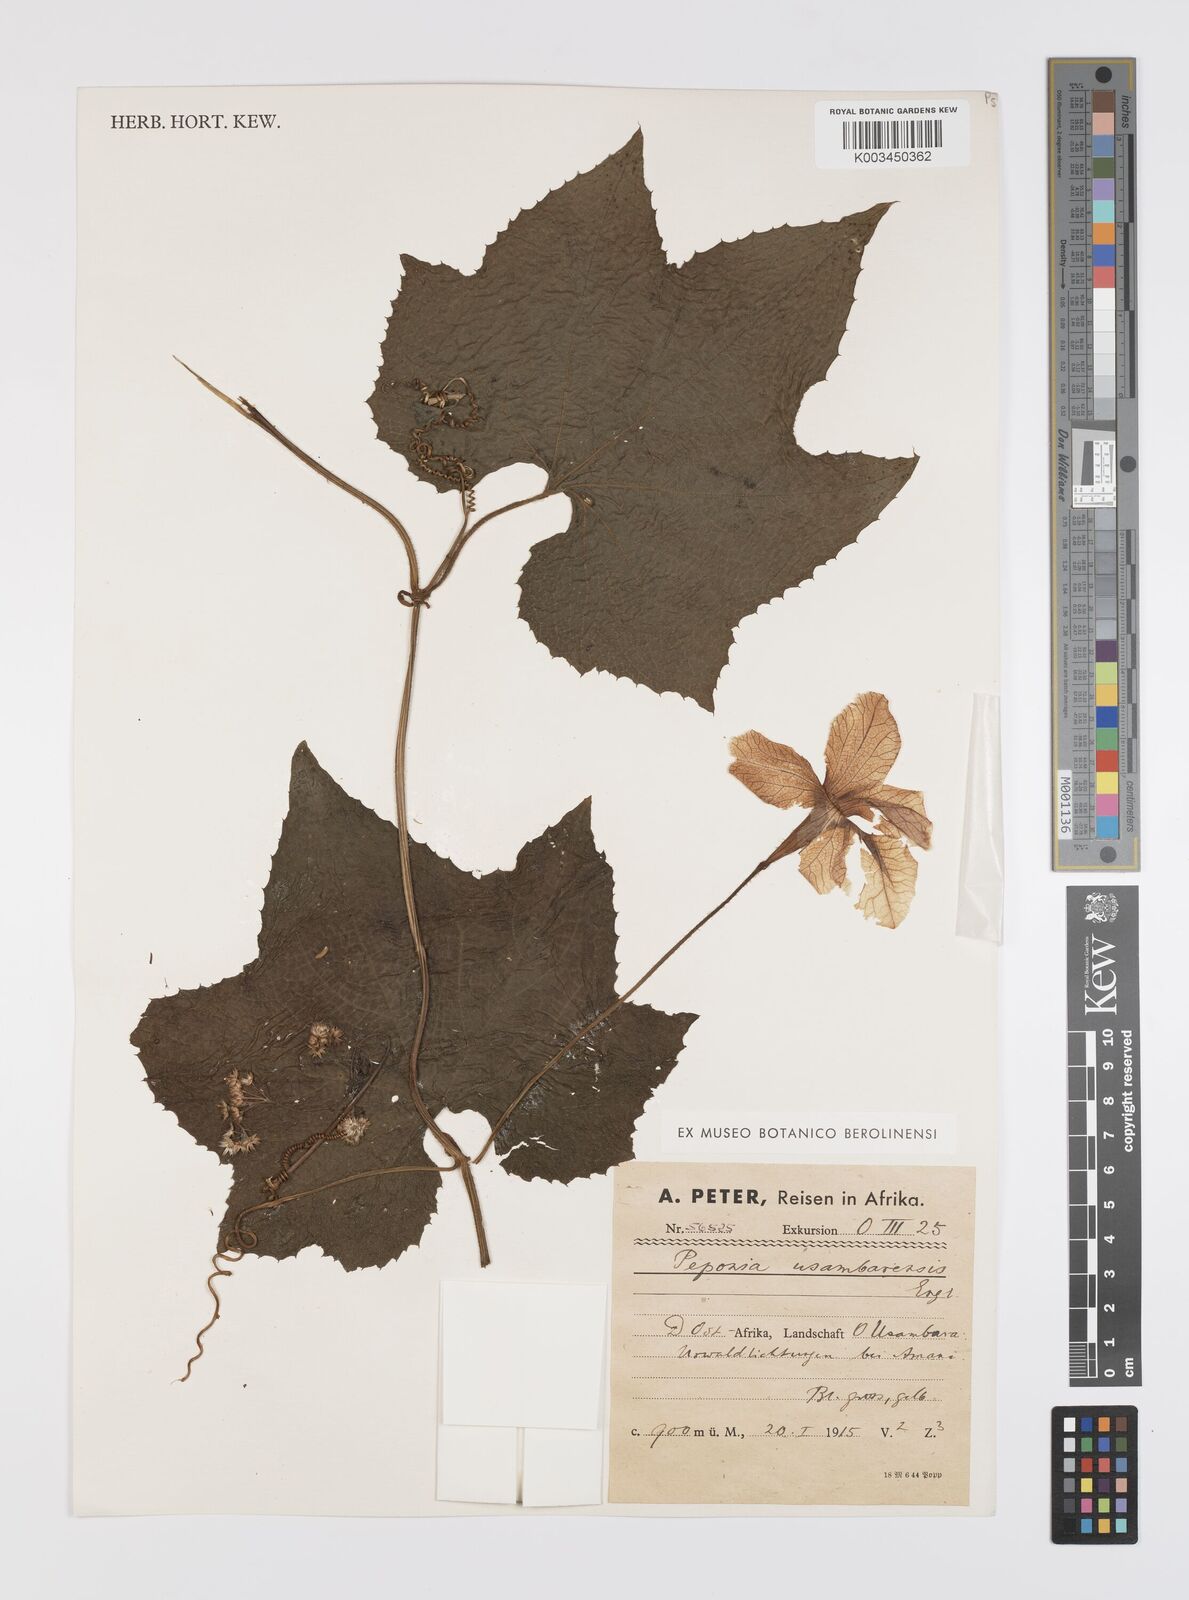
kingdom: Plantae
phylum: Tracheophyta
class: Magnoliopsida
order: Cucurbitales
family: Cucurbitaceae
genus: Peponium
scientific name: Peponium vogelii
